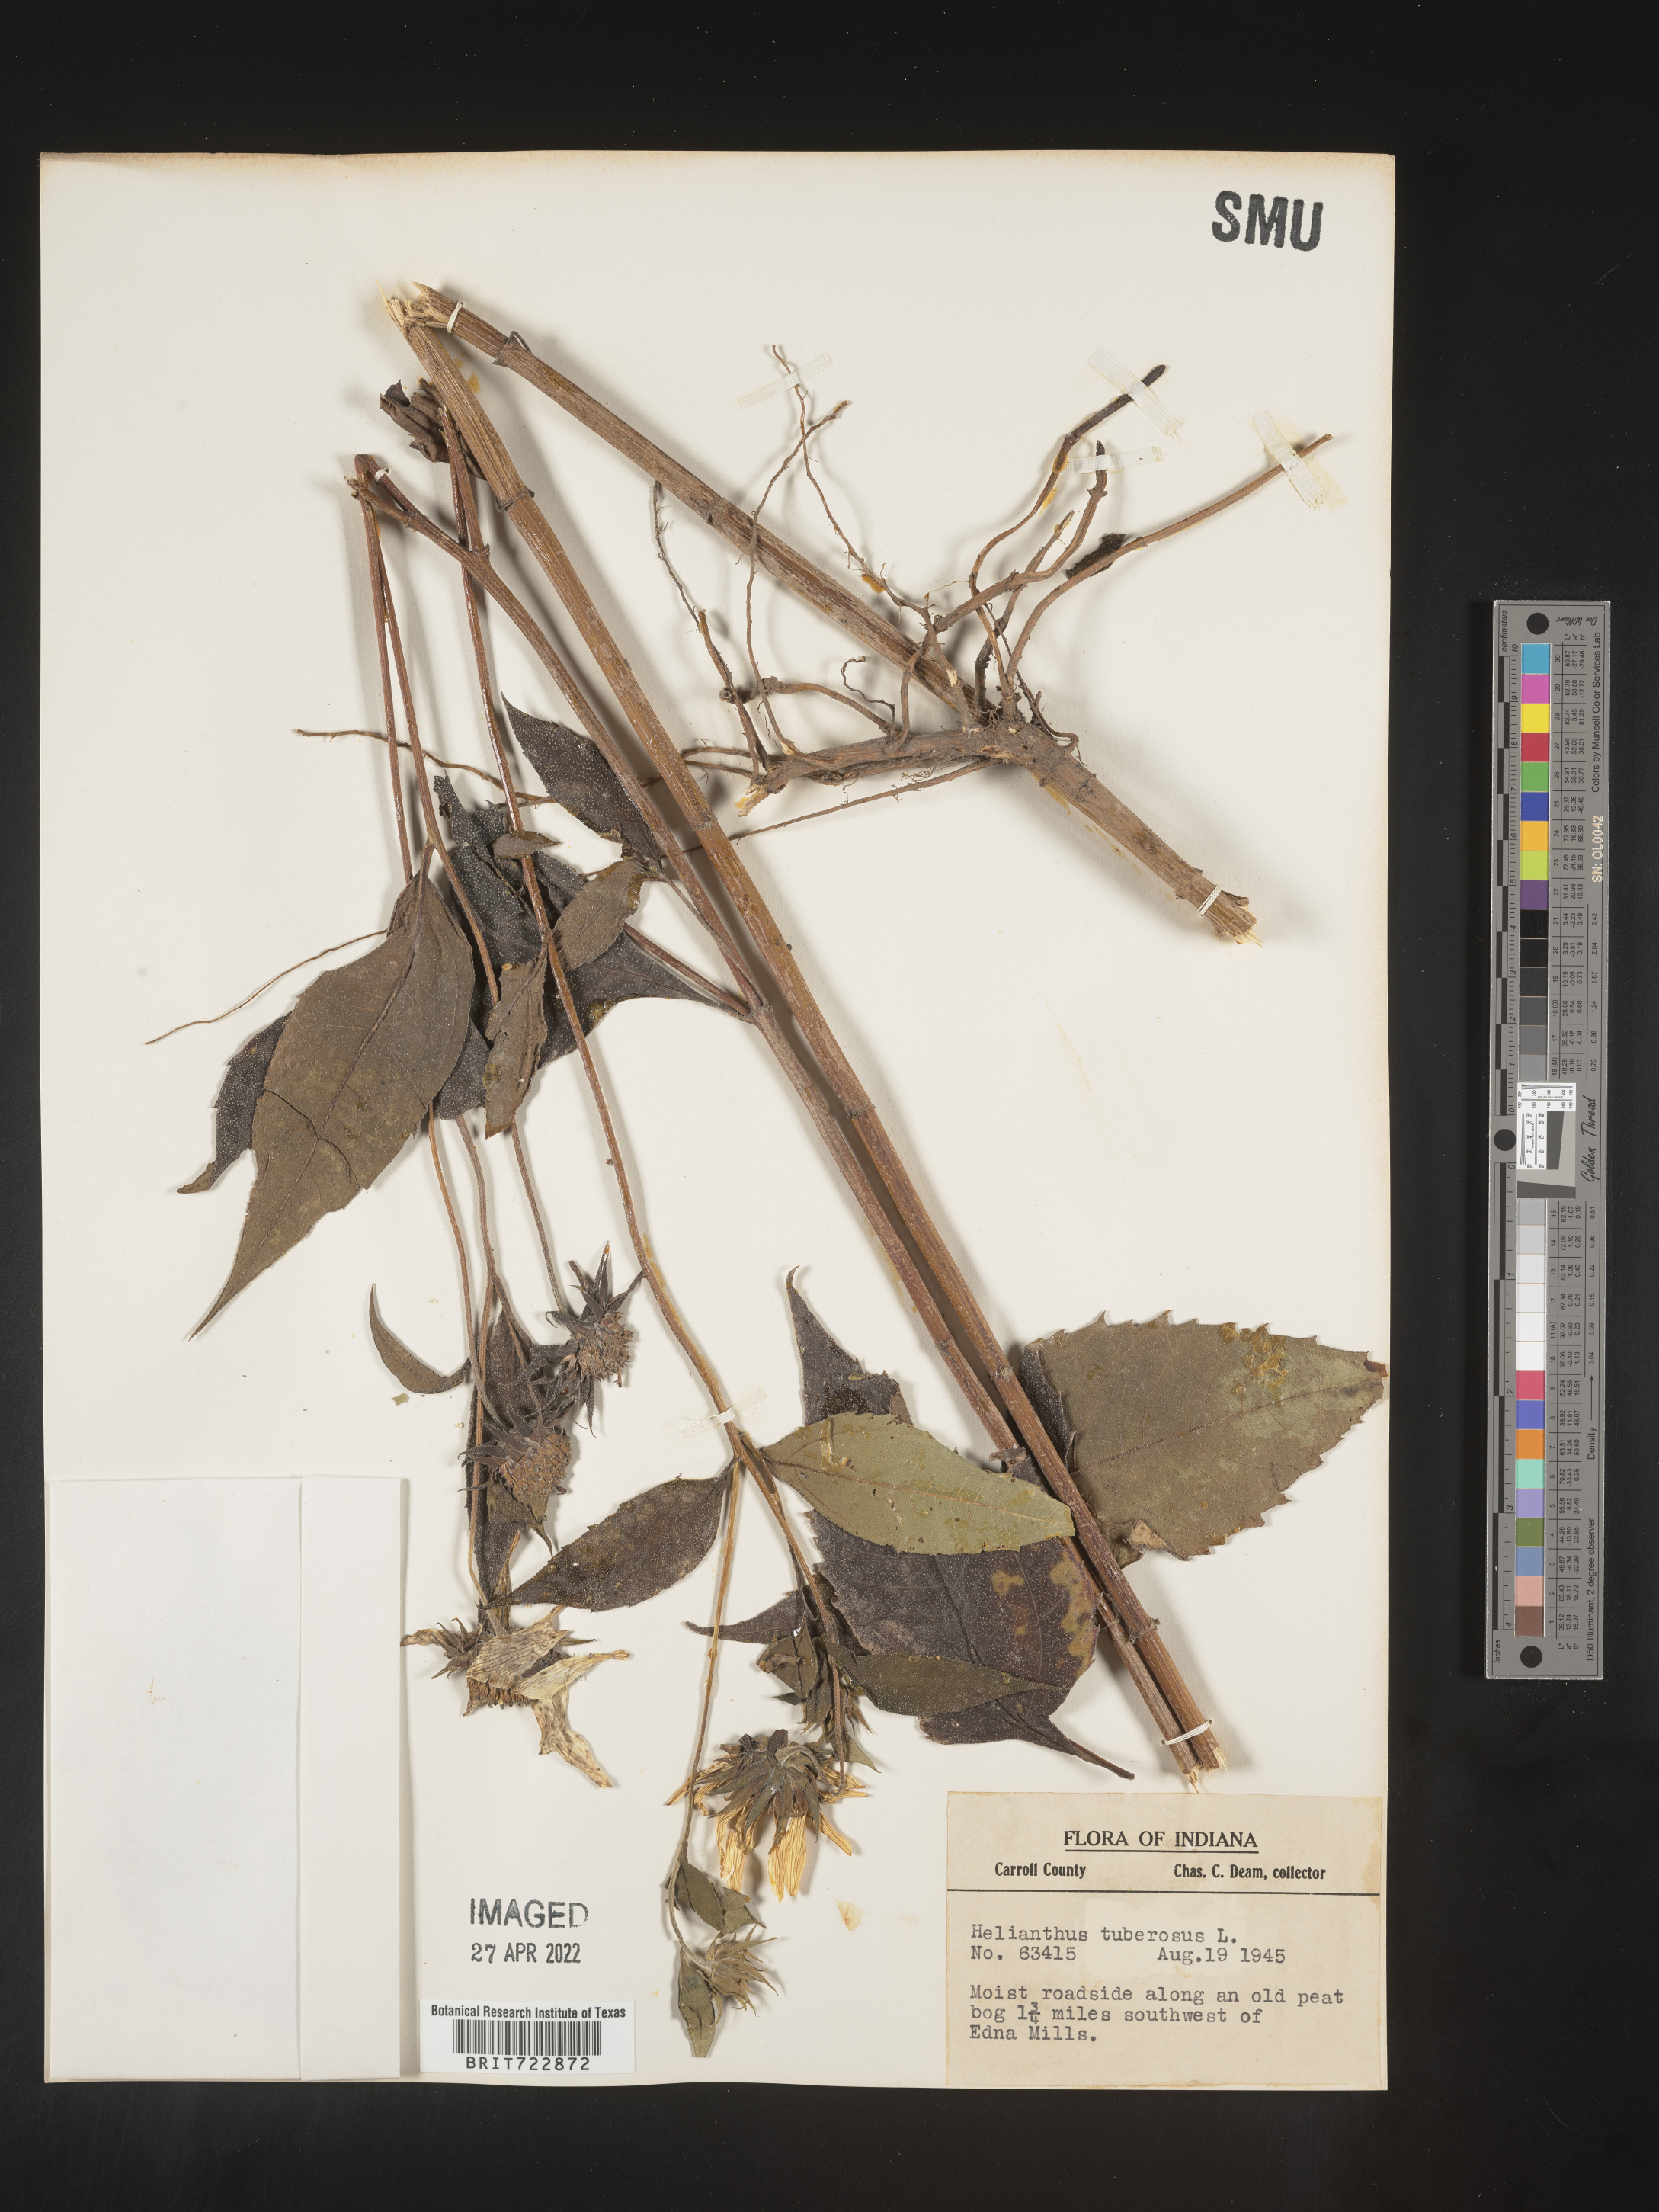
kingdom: Plantae
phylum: Tracheophyta
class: Magnoliopsida
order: Asterales
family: Asteraceae
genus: Helianthus
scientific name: Helianthus tuberosus
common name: Jerusalem artichoke
